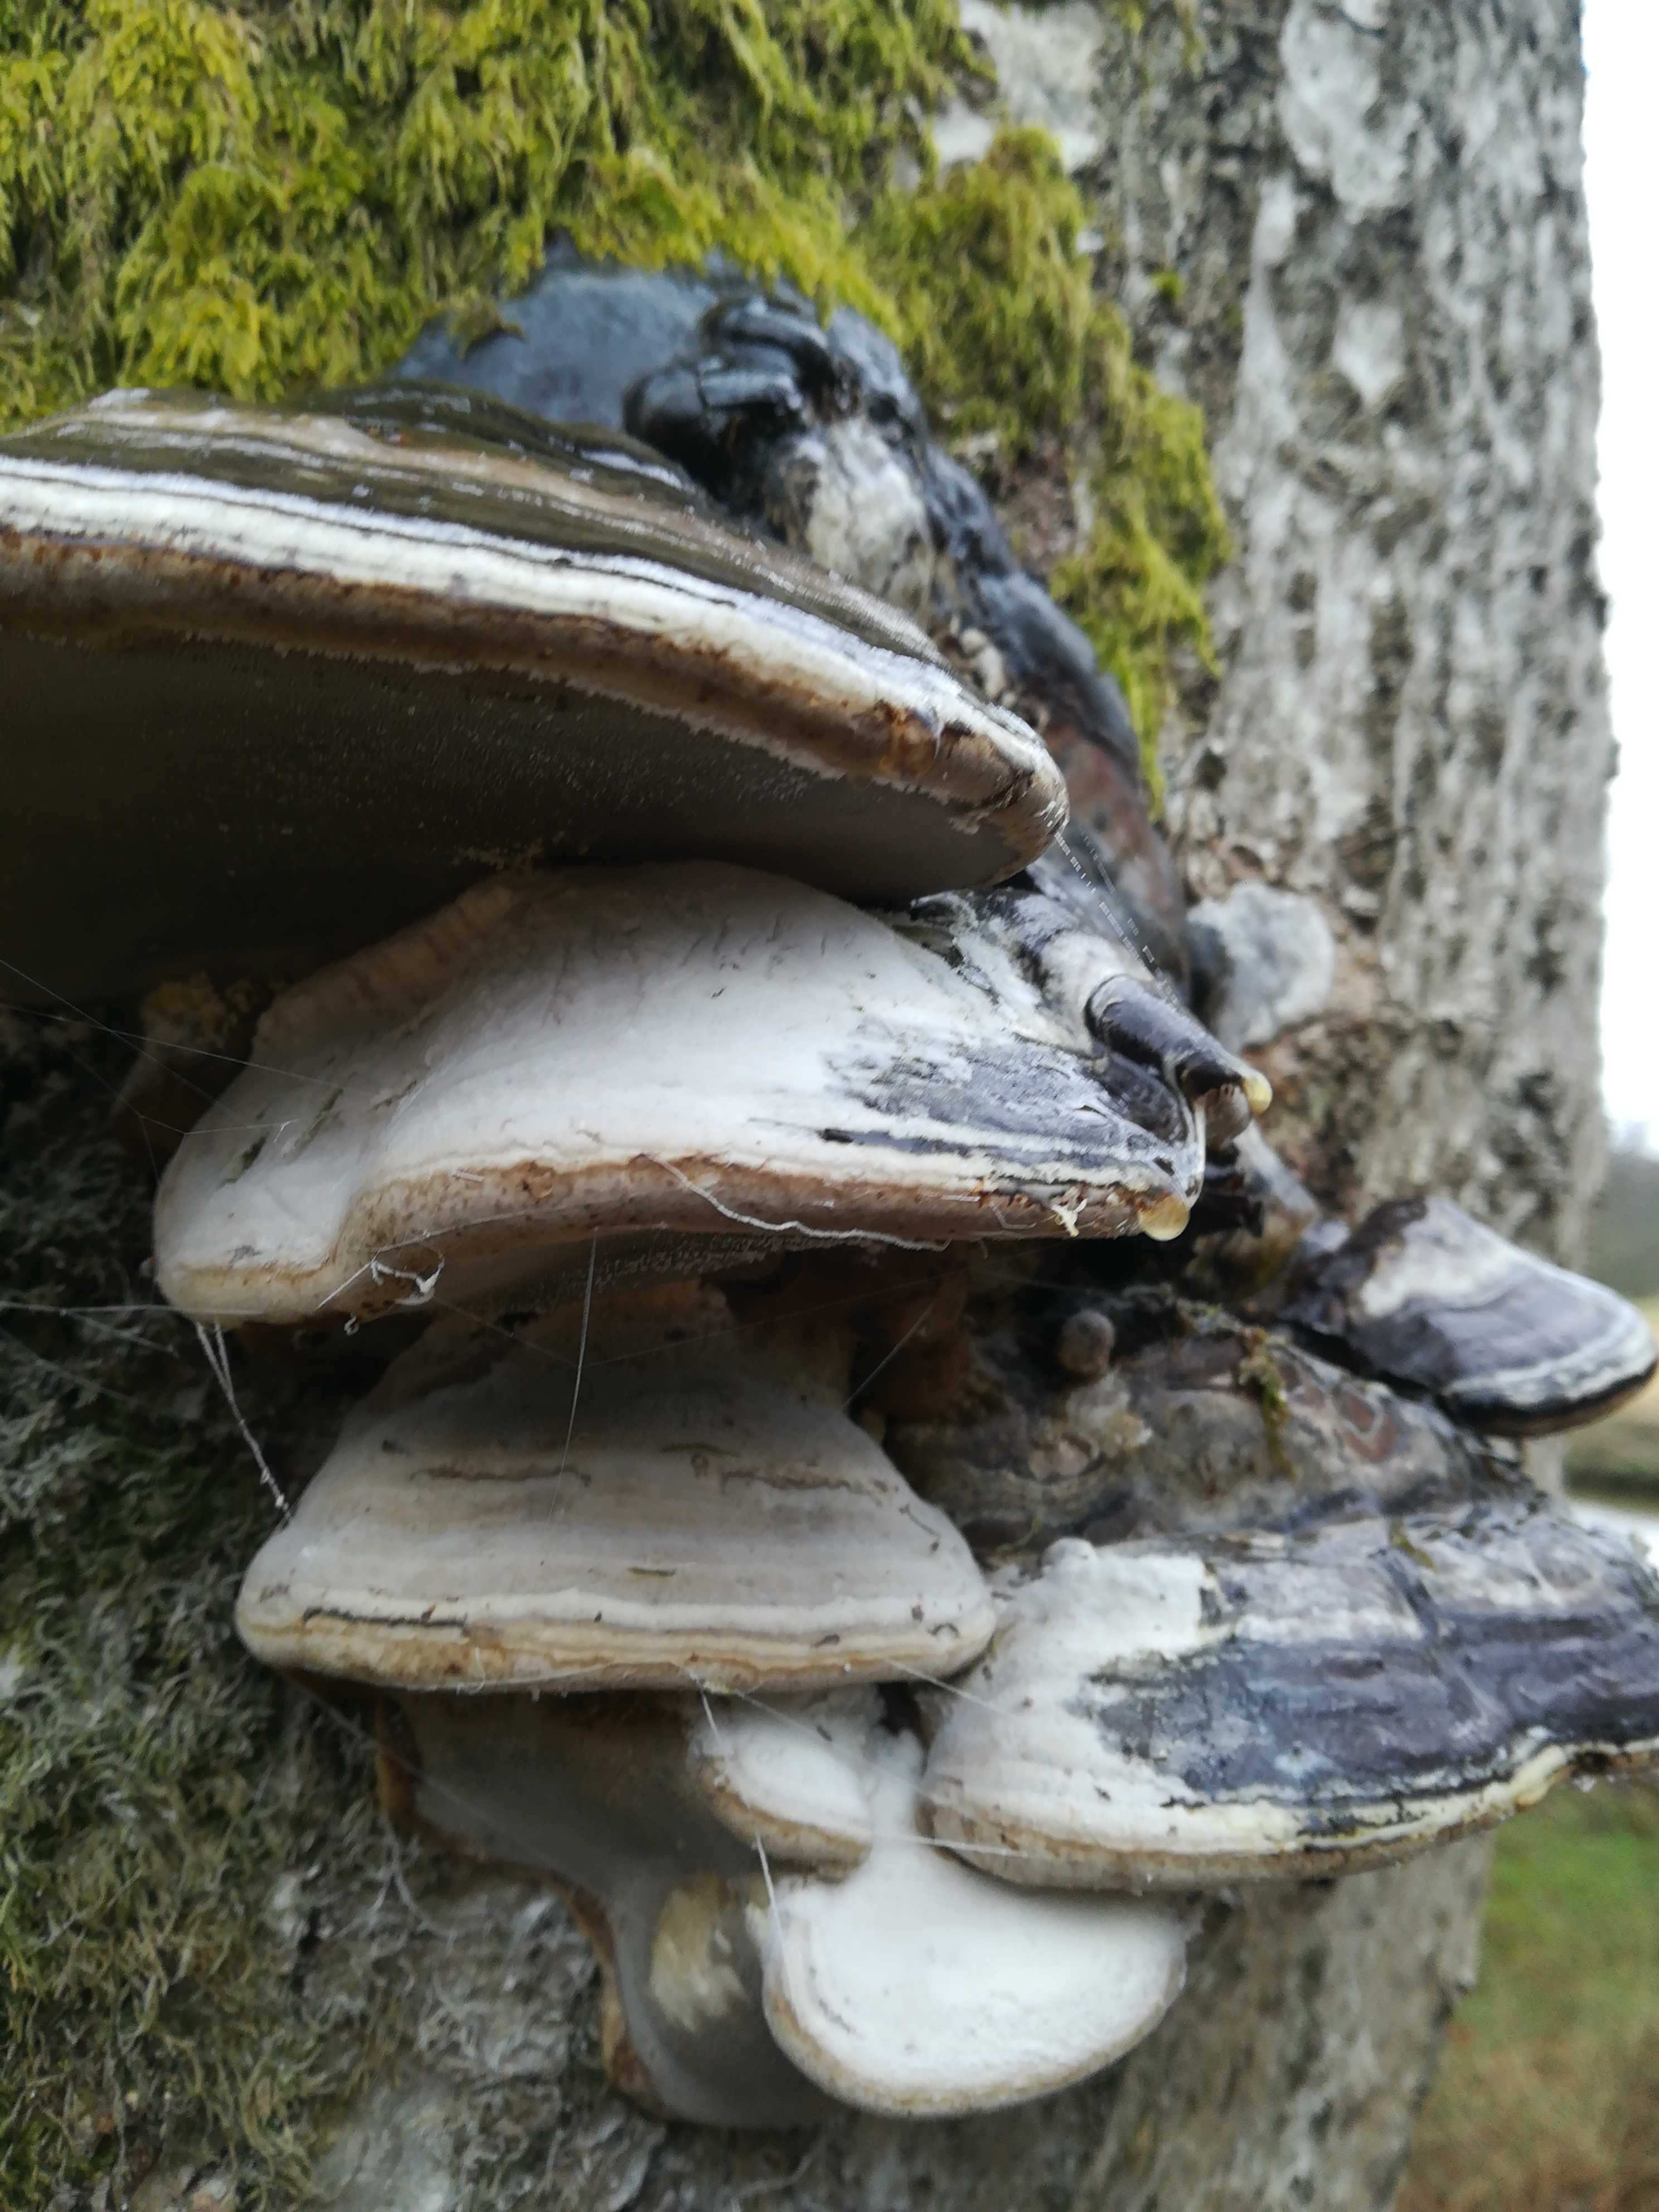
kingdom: Fungi
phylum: Basidiomycota
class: Agaricomycetes
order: Polyporales
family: Polyporaceae
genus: Fomes
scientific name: Fomes fomentarius
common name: tøndersvamp
